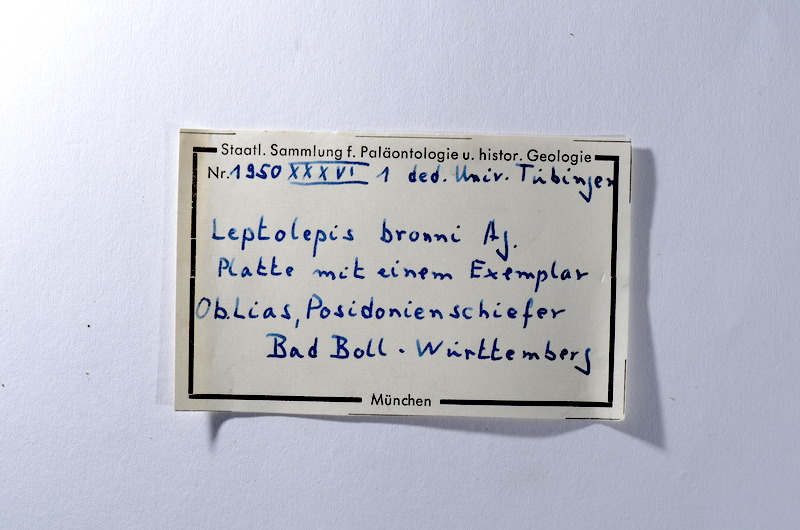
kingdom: Animalia
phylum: Chordata
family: Leptolepididae
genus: Leptolepis
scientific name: Leptolepis coryphaenoides
